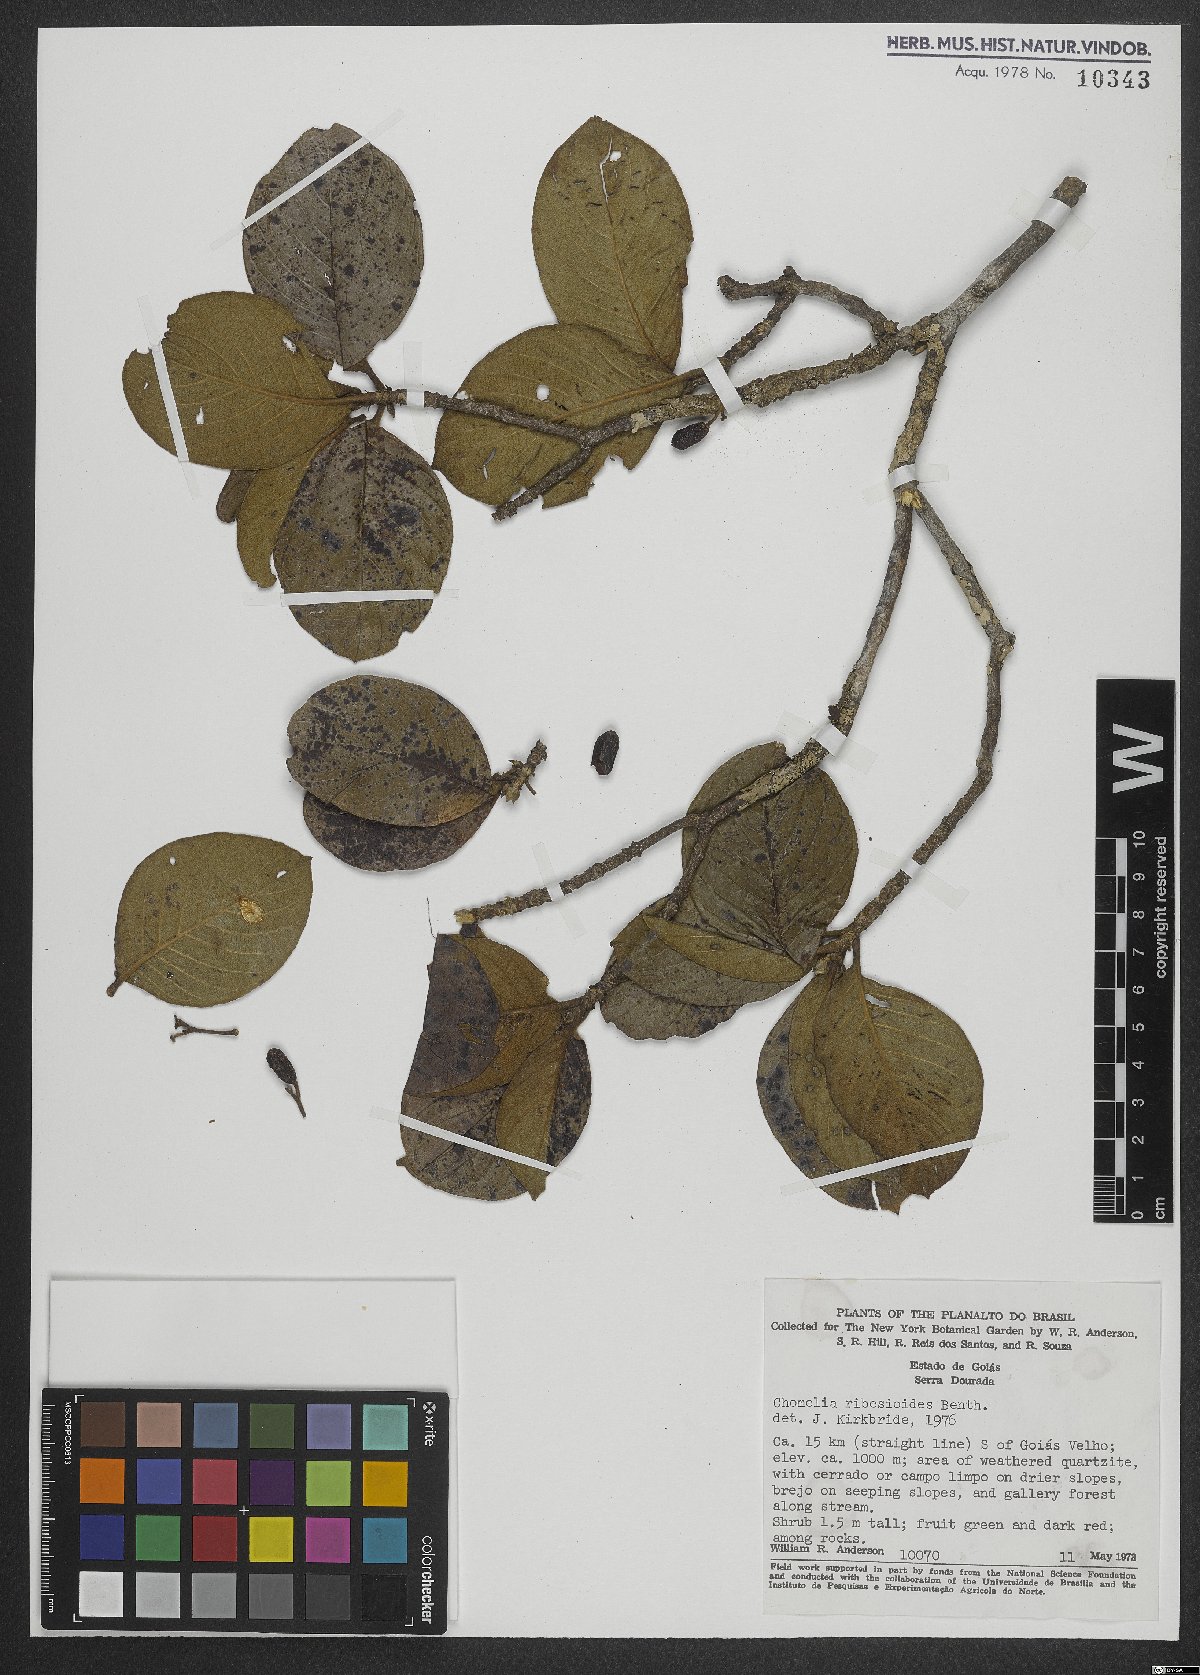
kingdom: Plantae
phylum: Tracheophyta
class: Magnoliopsida
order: Gentianales
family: Rubiaceae
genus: Chomelia
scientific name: Chomelia ribesioides
